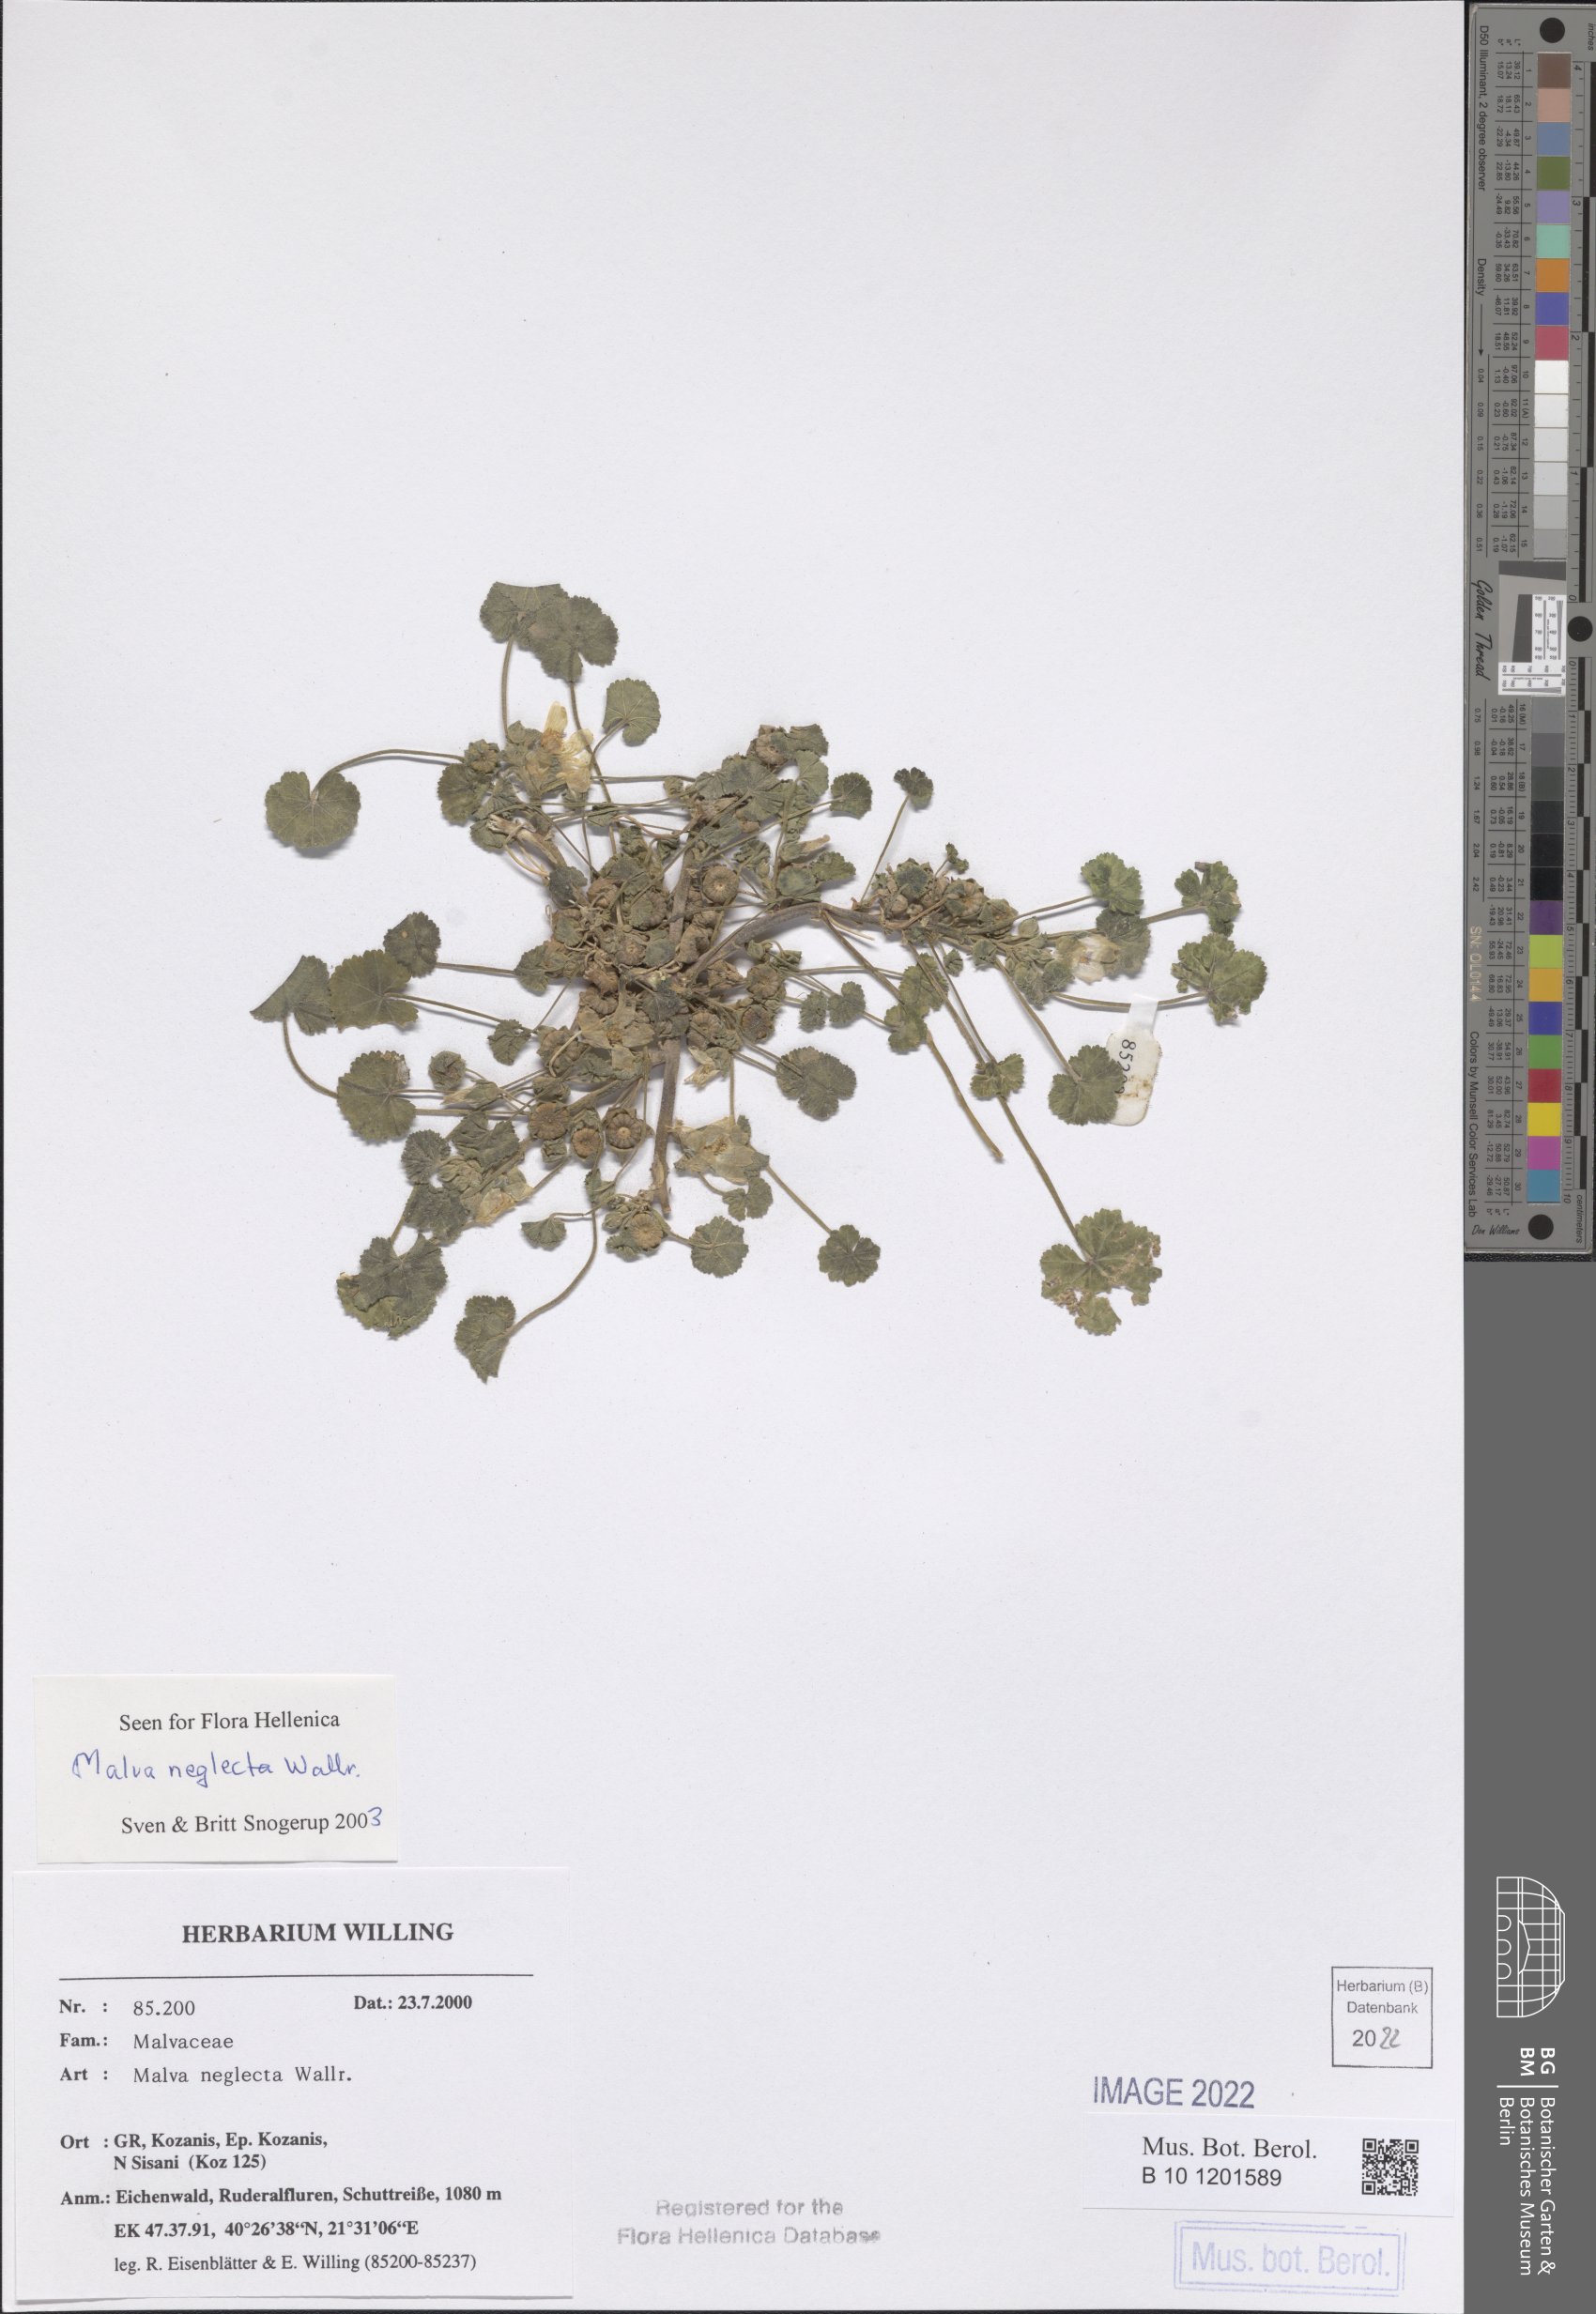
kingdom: Plantae
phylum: Tracheophyta
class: Magnoliopsida
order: Malvales
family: Malvaceae
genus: Malva
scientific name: Malva neglecta
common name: Common mallow
